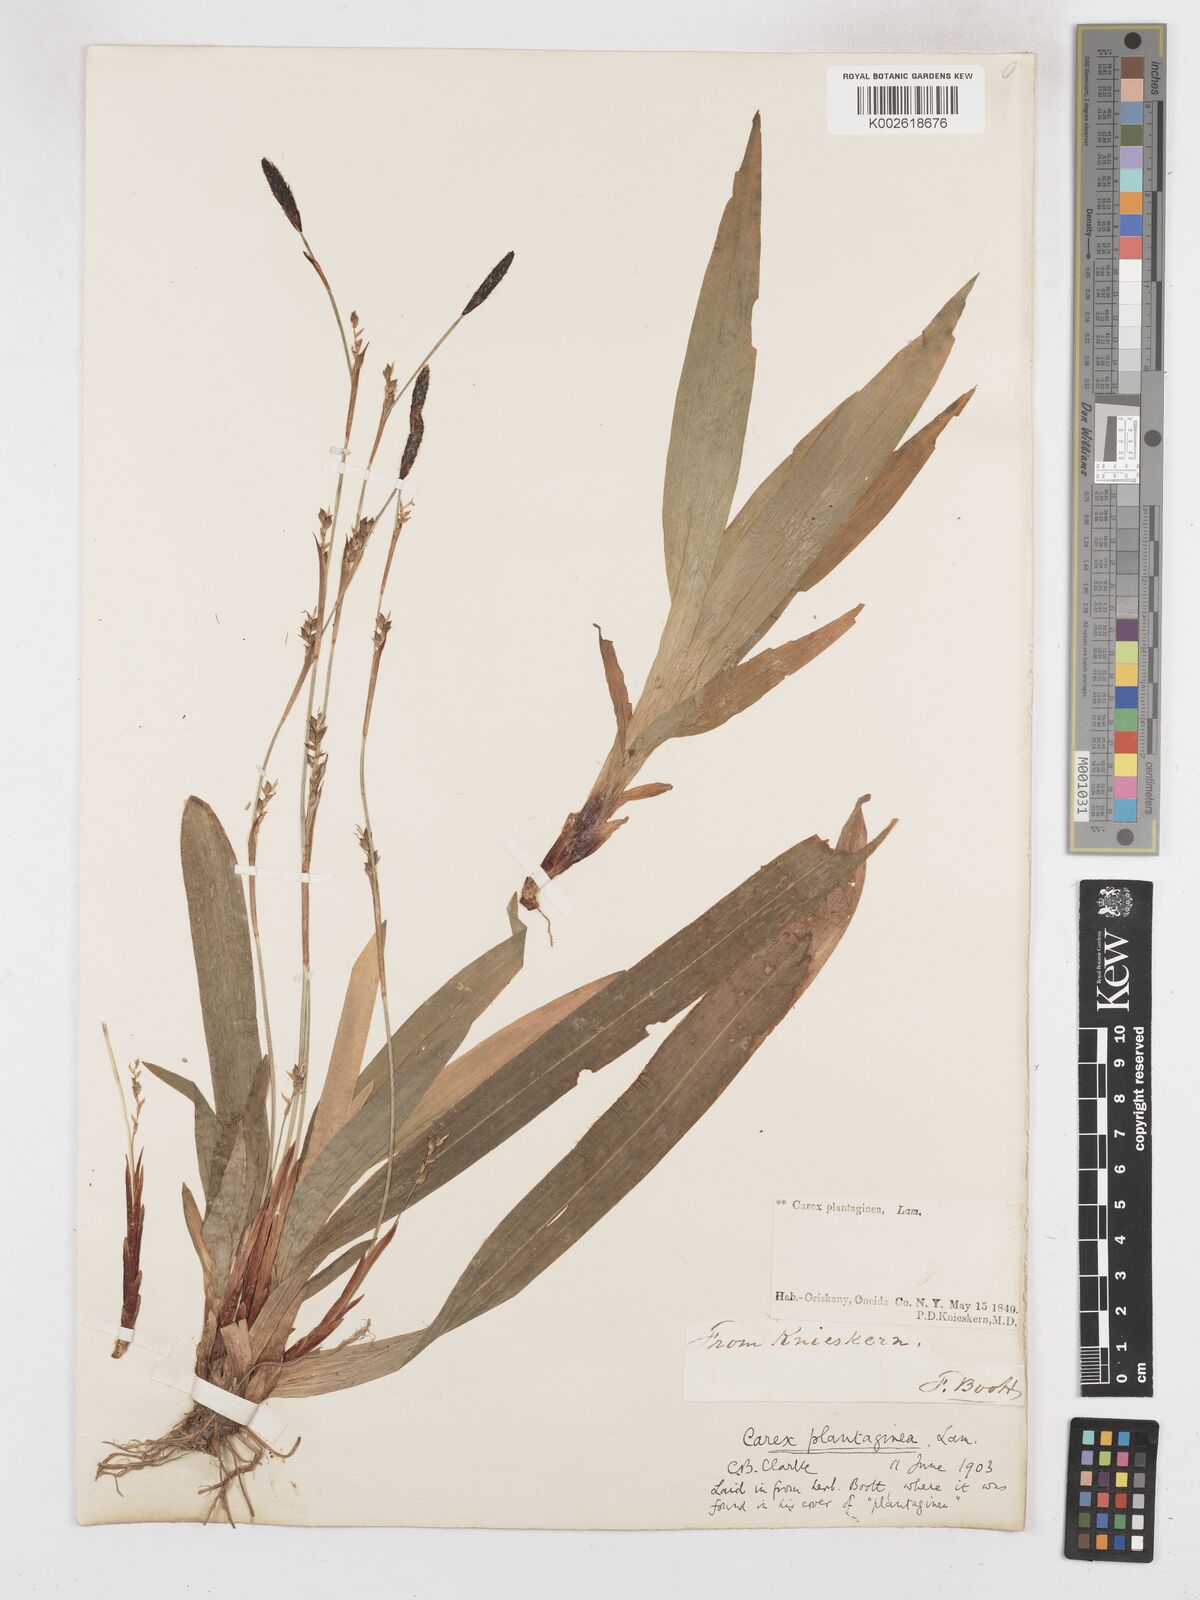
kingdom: Plantae
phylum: Tracheophyta
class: Liliopsida
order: Poales
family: Cyperaceae
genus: Carex
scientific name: Carex plantaginea
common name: Plantain-leaved sedge
